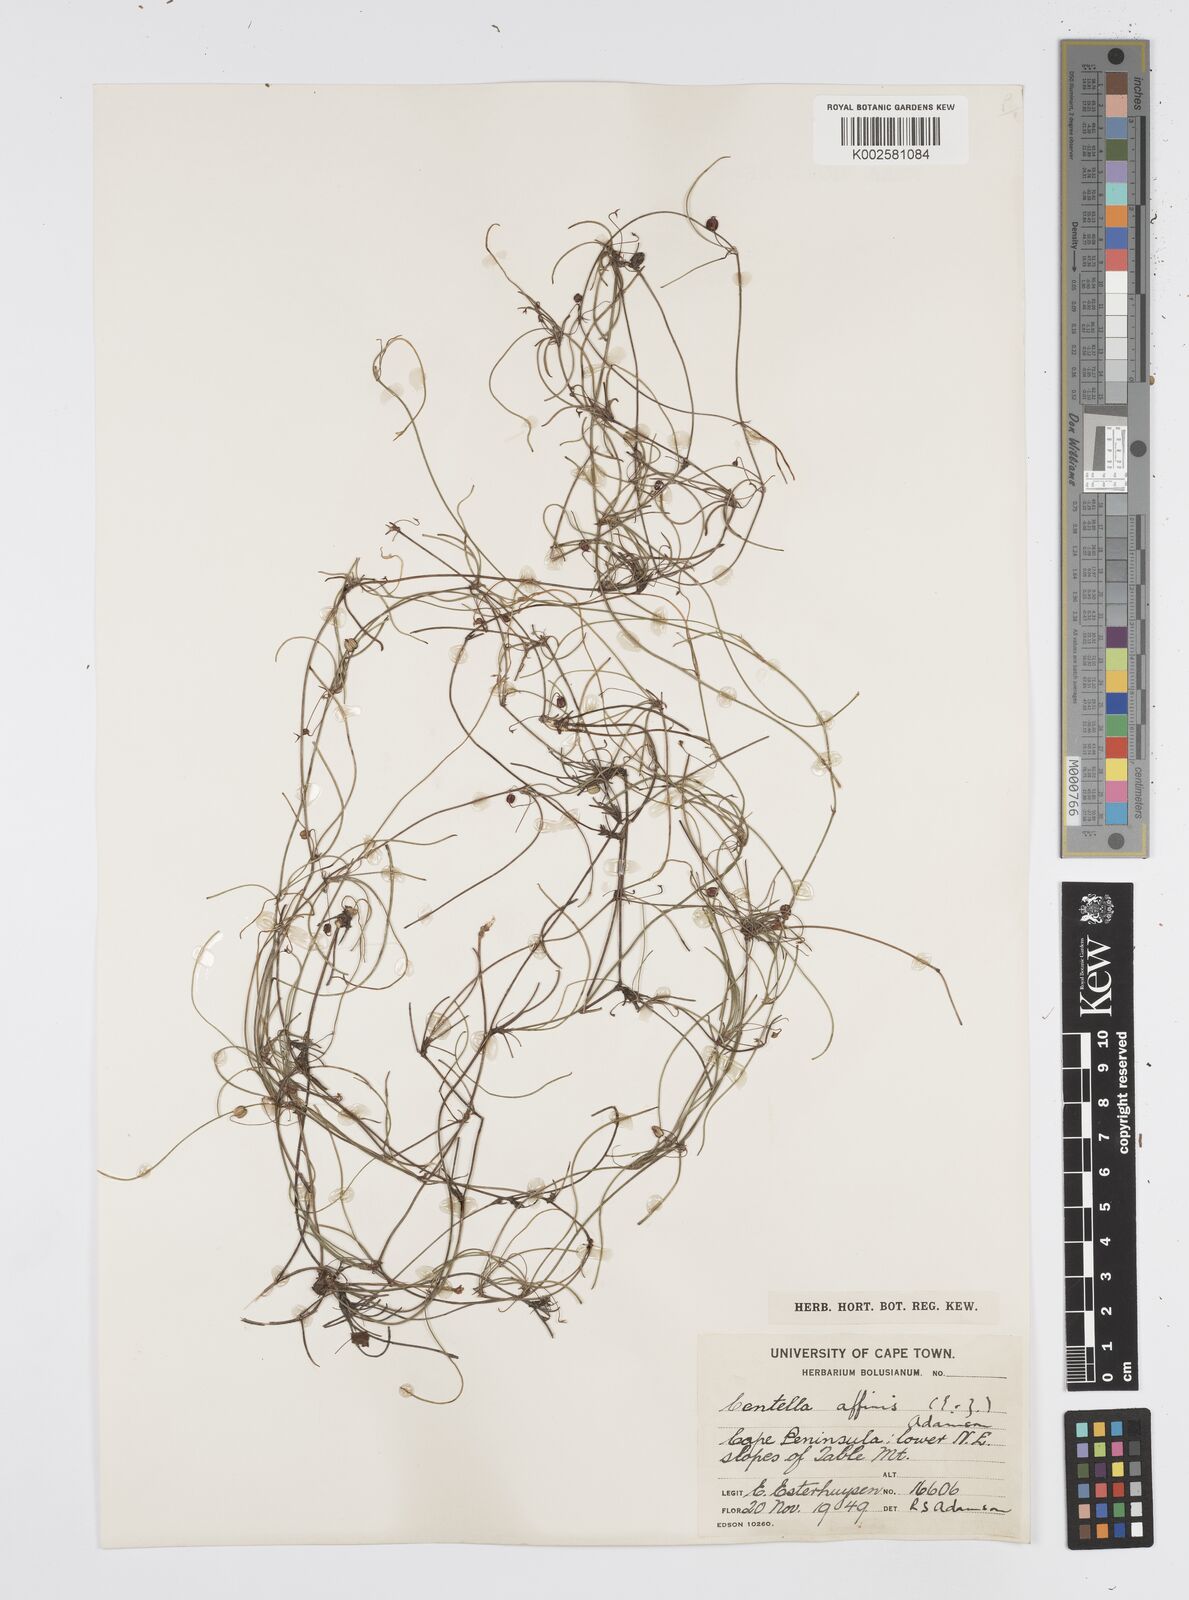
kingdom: Plantae
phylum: Tracheophyta
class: Magnoliopsida
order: Apiales
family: Apiaceae
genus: Centella
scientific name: Centella affinis
